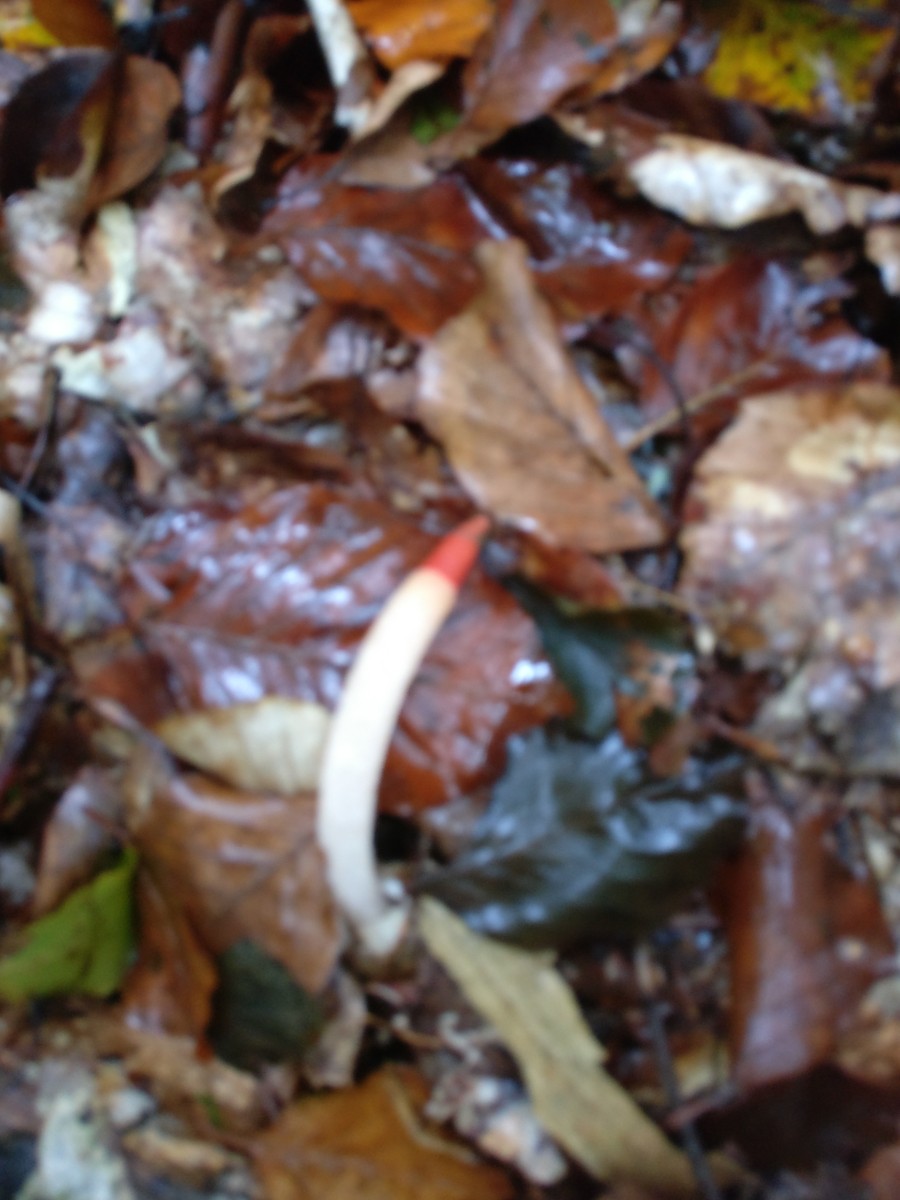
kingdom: Fungi
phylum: Basidiomycota
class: Agaricomycetes
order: Phallales
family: Phallaceae
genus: Mutinus
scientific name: Mutinus
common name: stinksvamp
